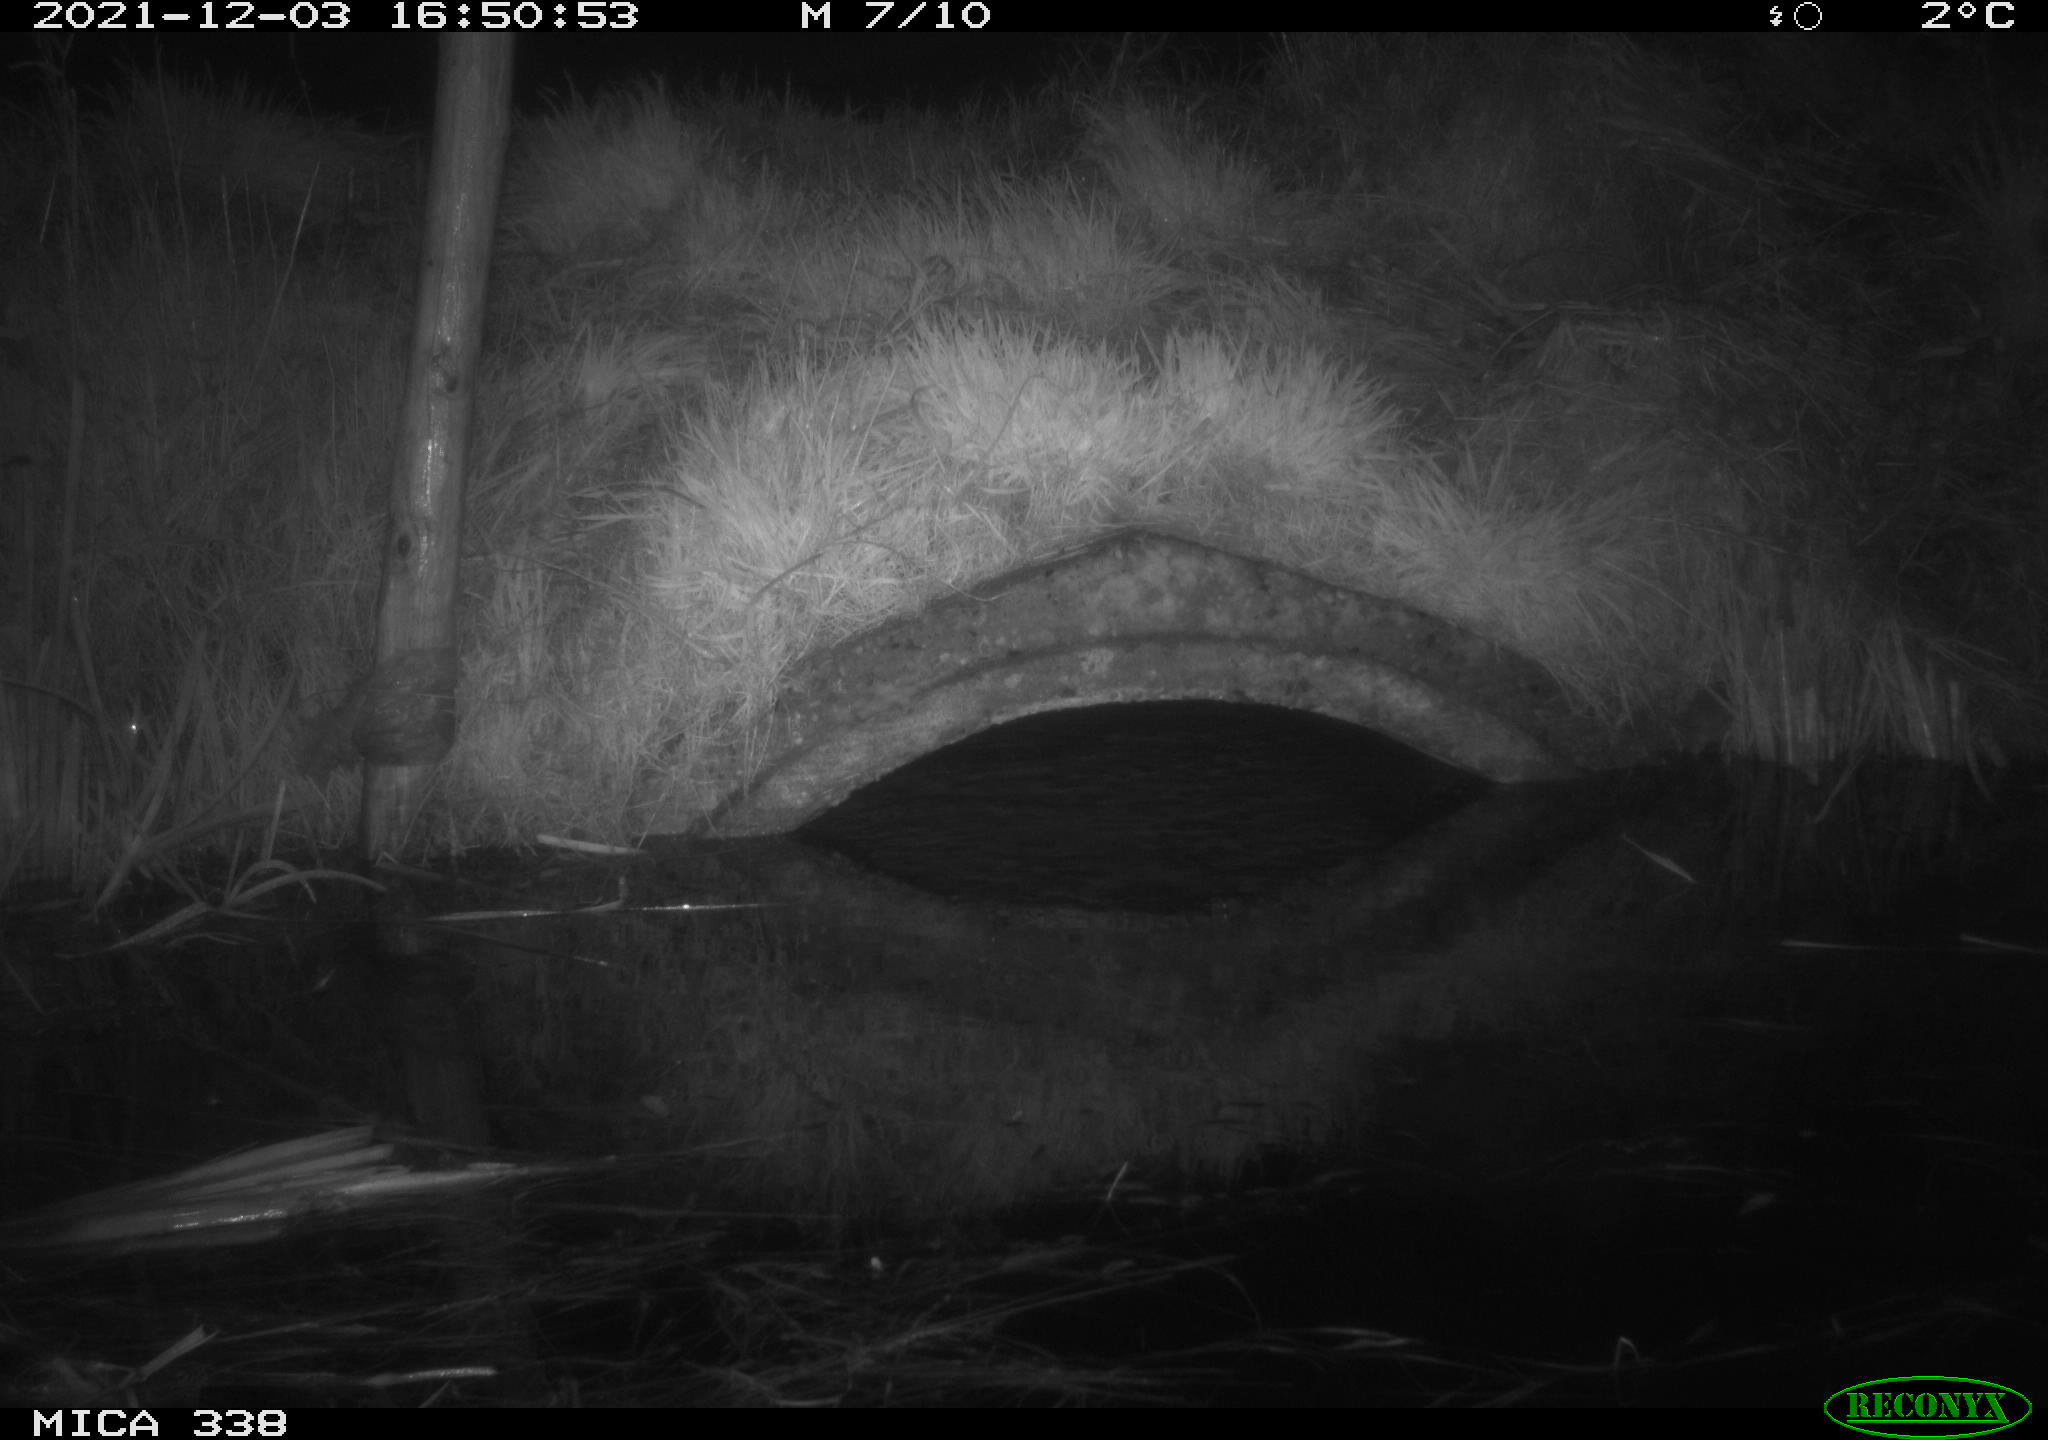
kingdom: Animalia
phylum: Chordata
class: Mammalia
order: Rodentia
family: Muridae
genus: Rattus
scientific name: Rattus norvegicus
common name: Brown rat
